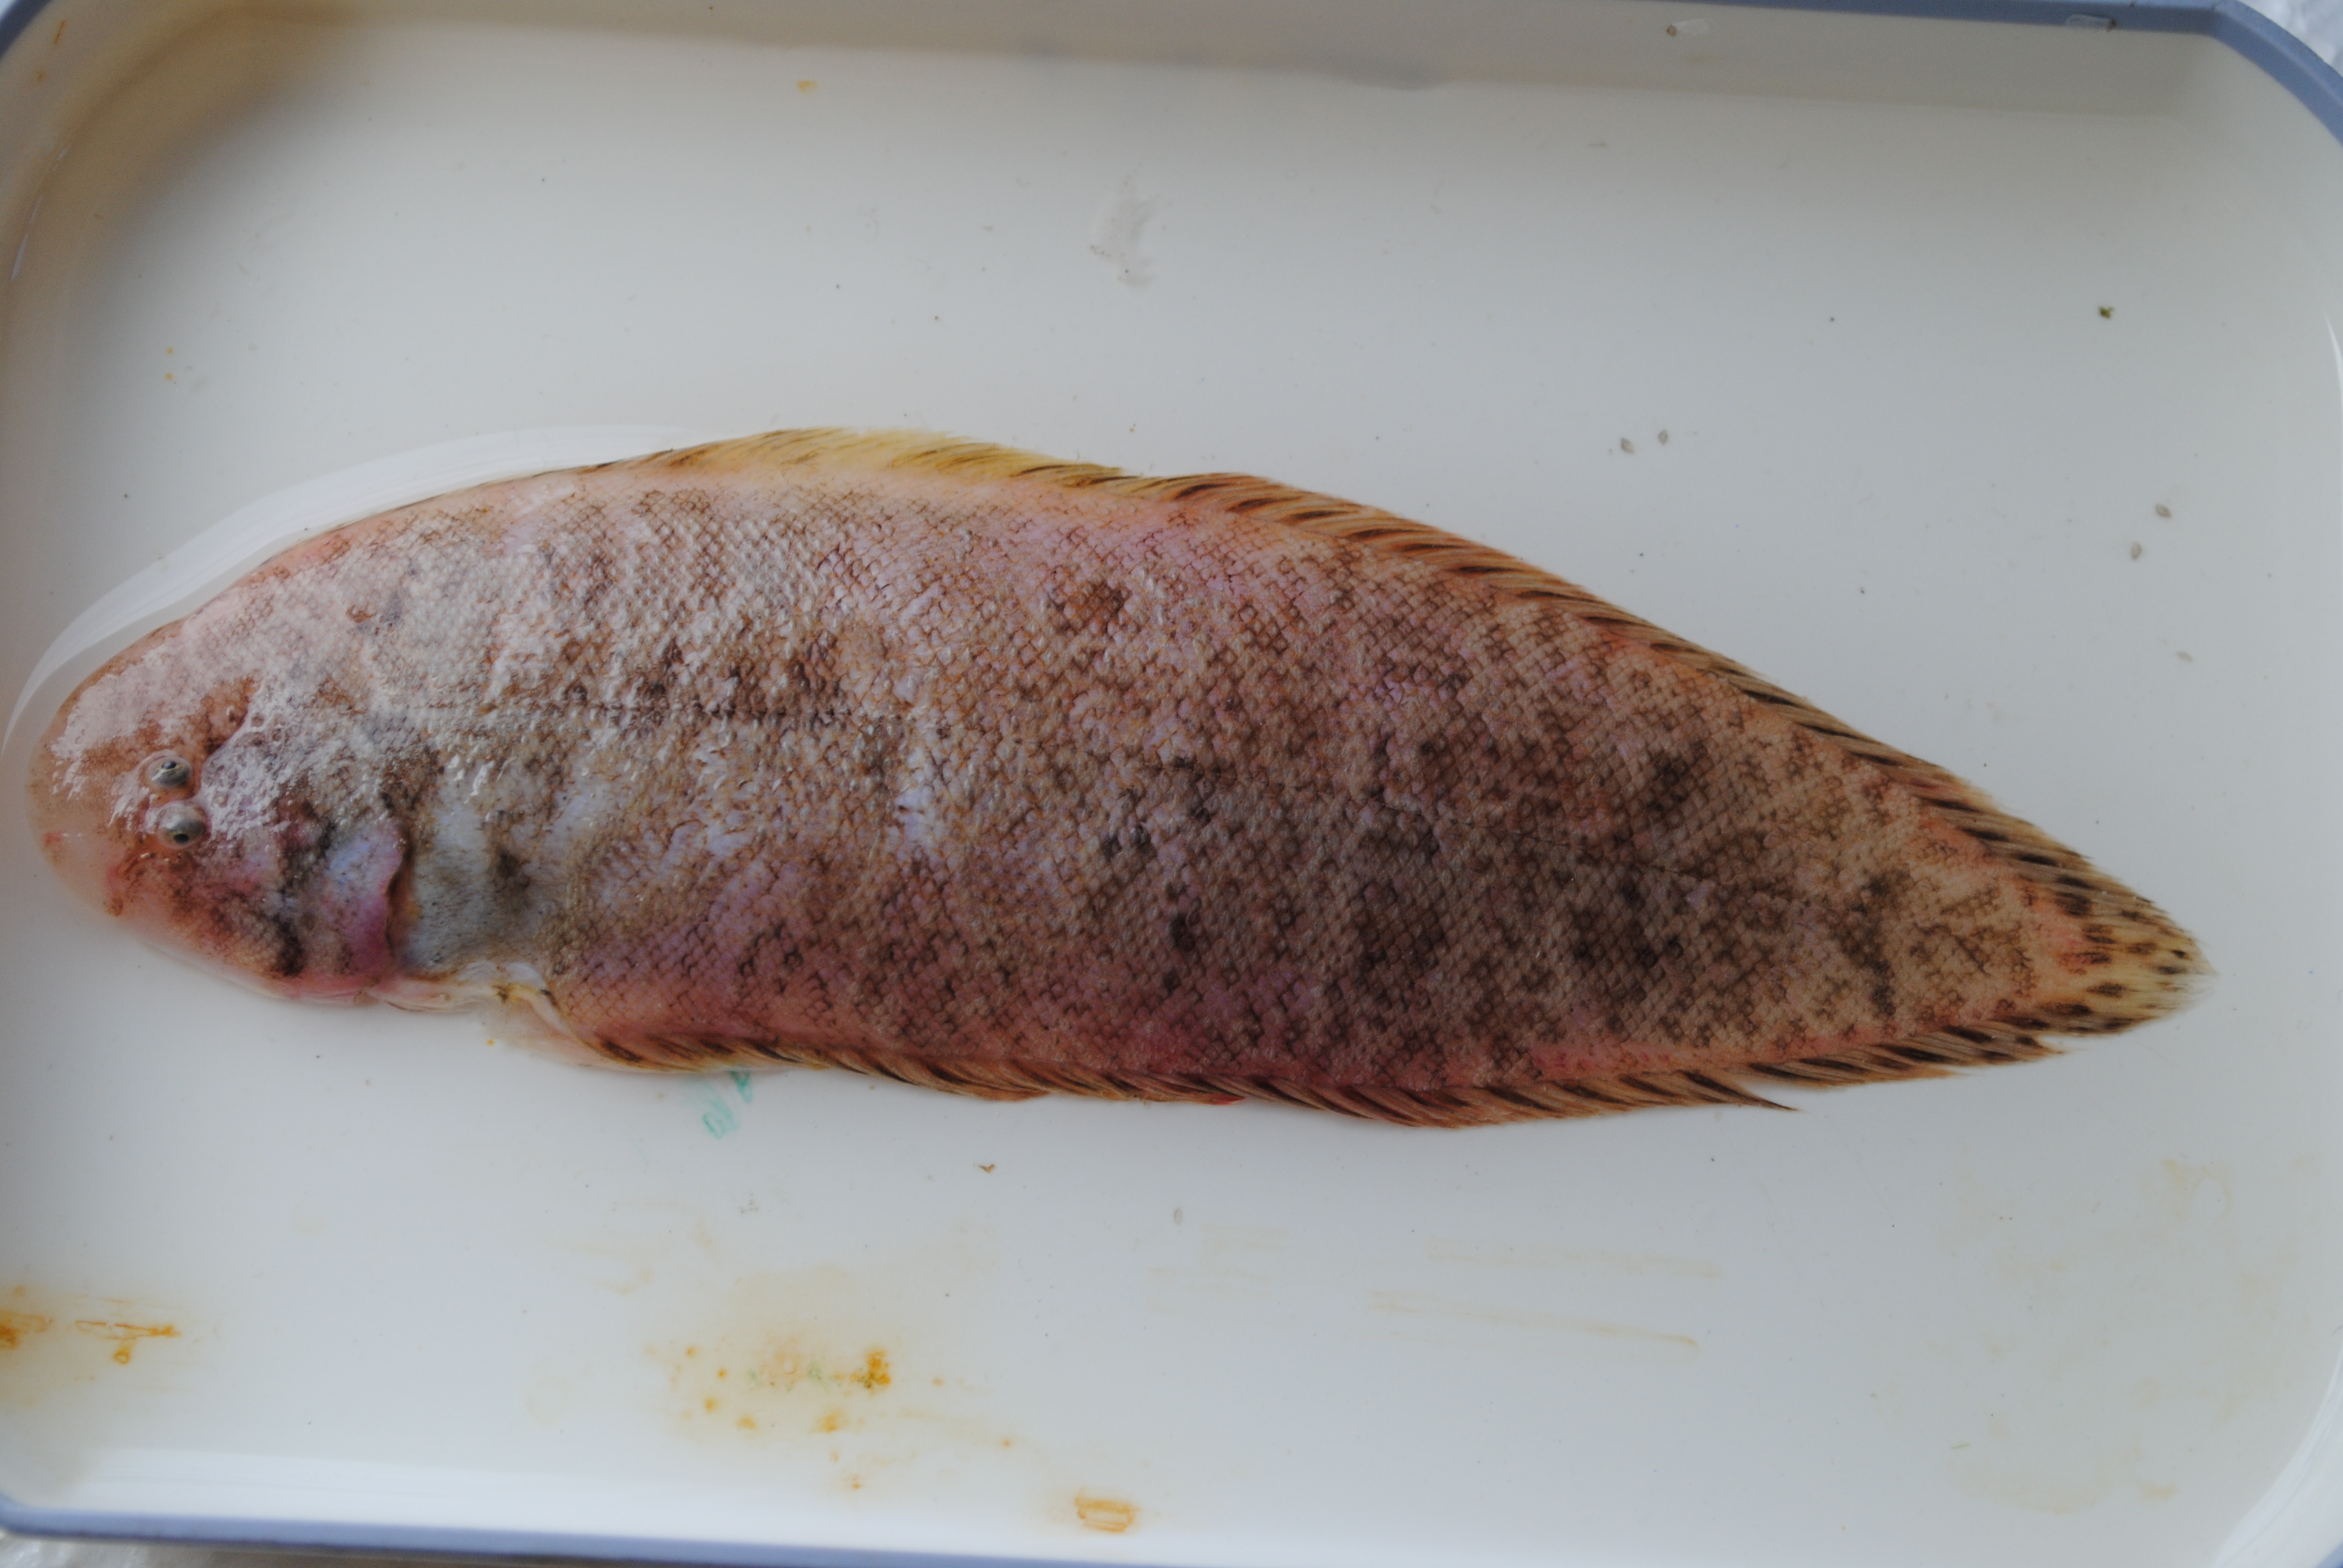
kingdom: Animalia
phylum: Chordata
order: Pleuronectiformes
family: Cynoglossidae
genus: Cynoglossus
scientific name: Cynoglossus
